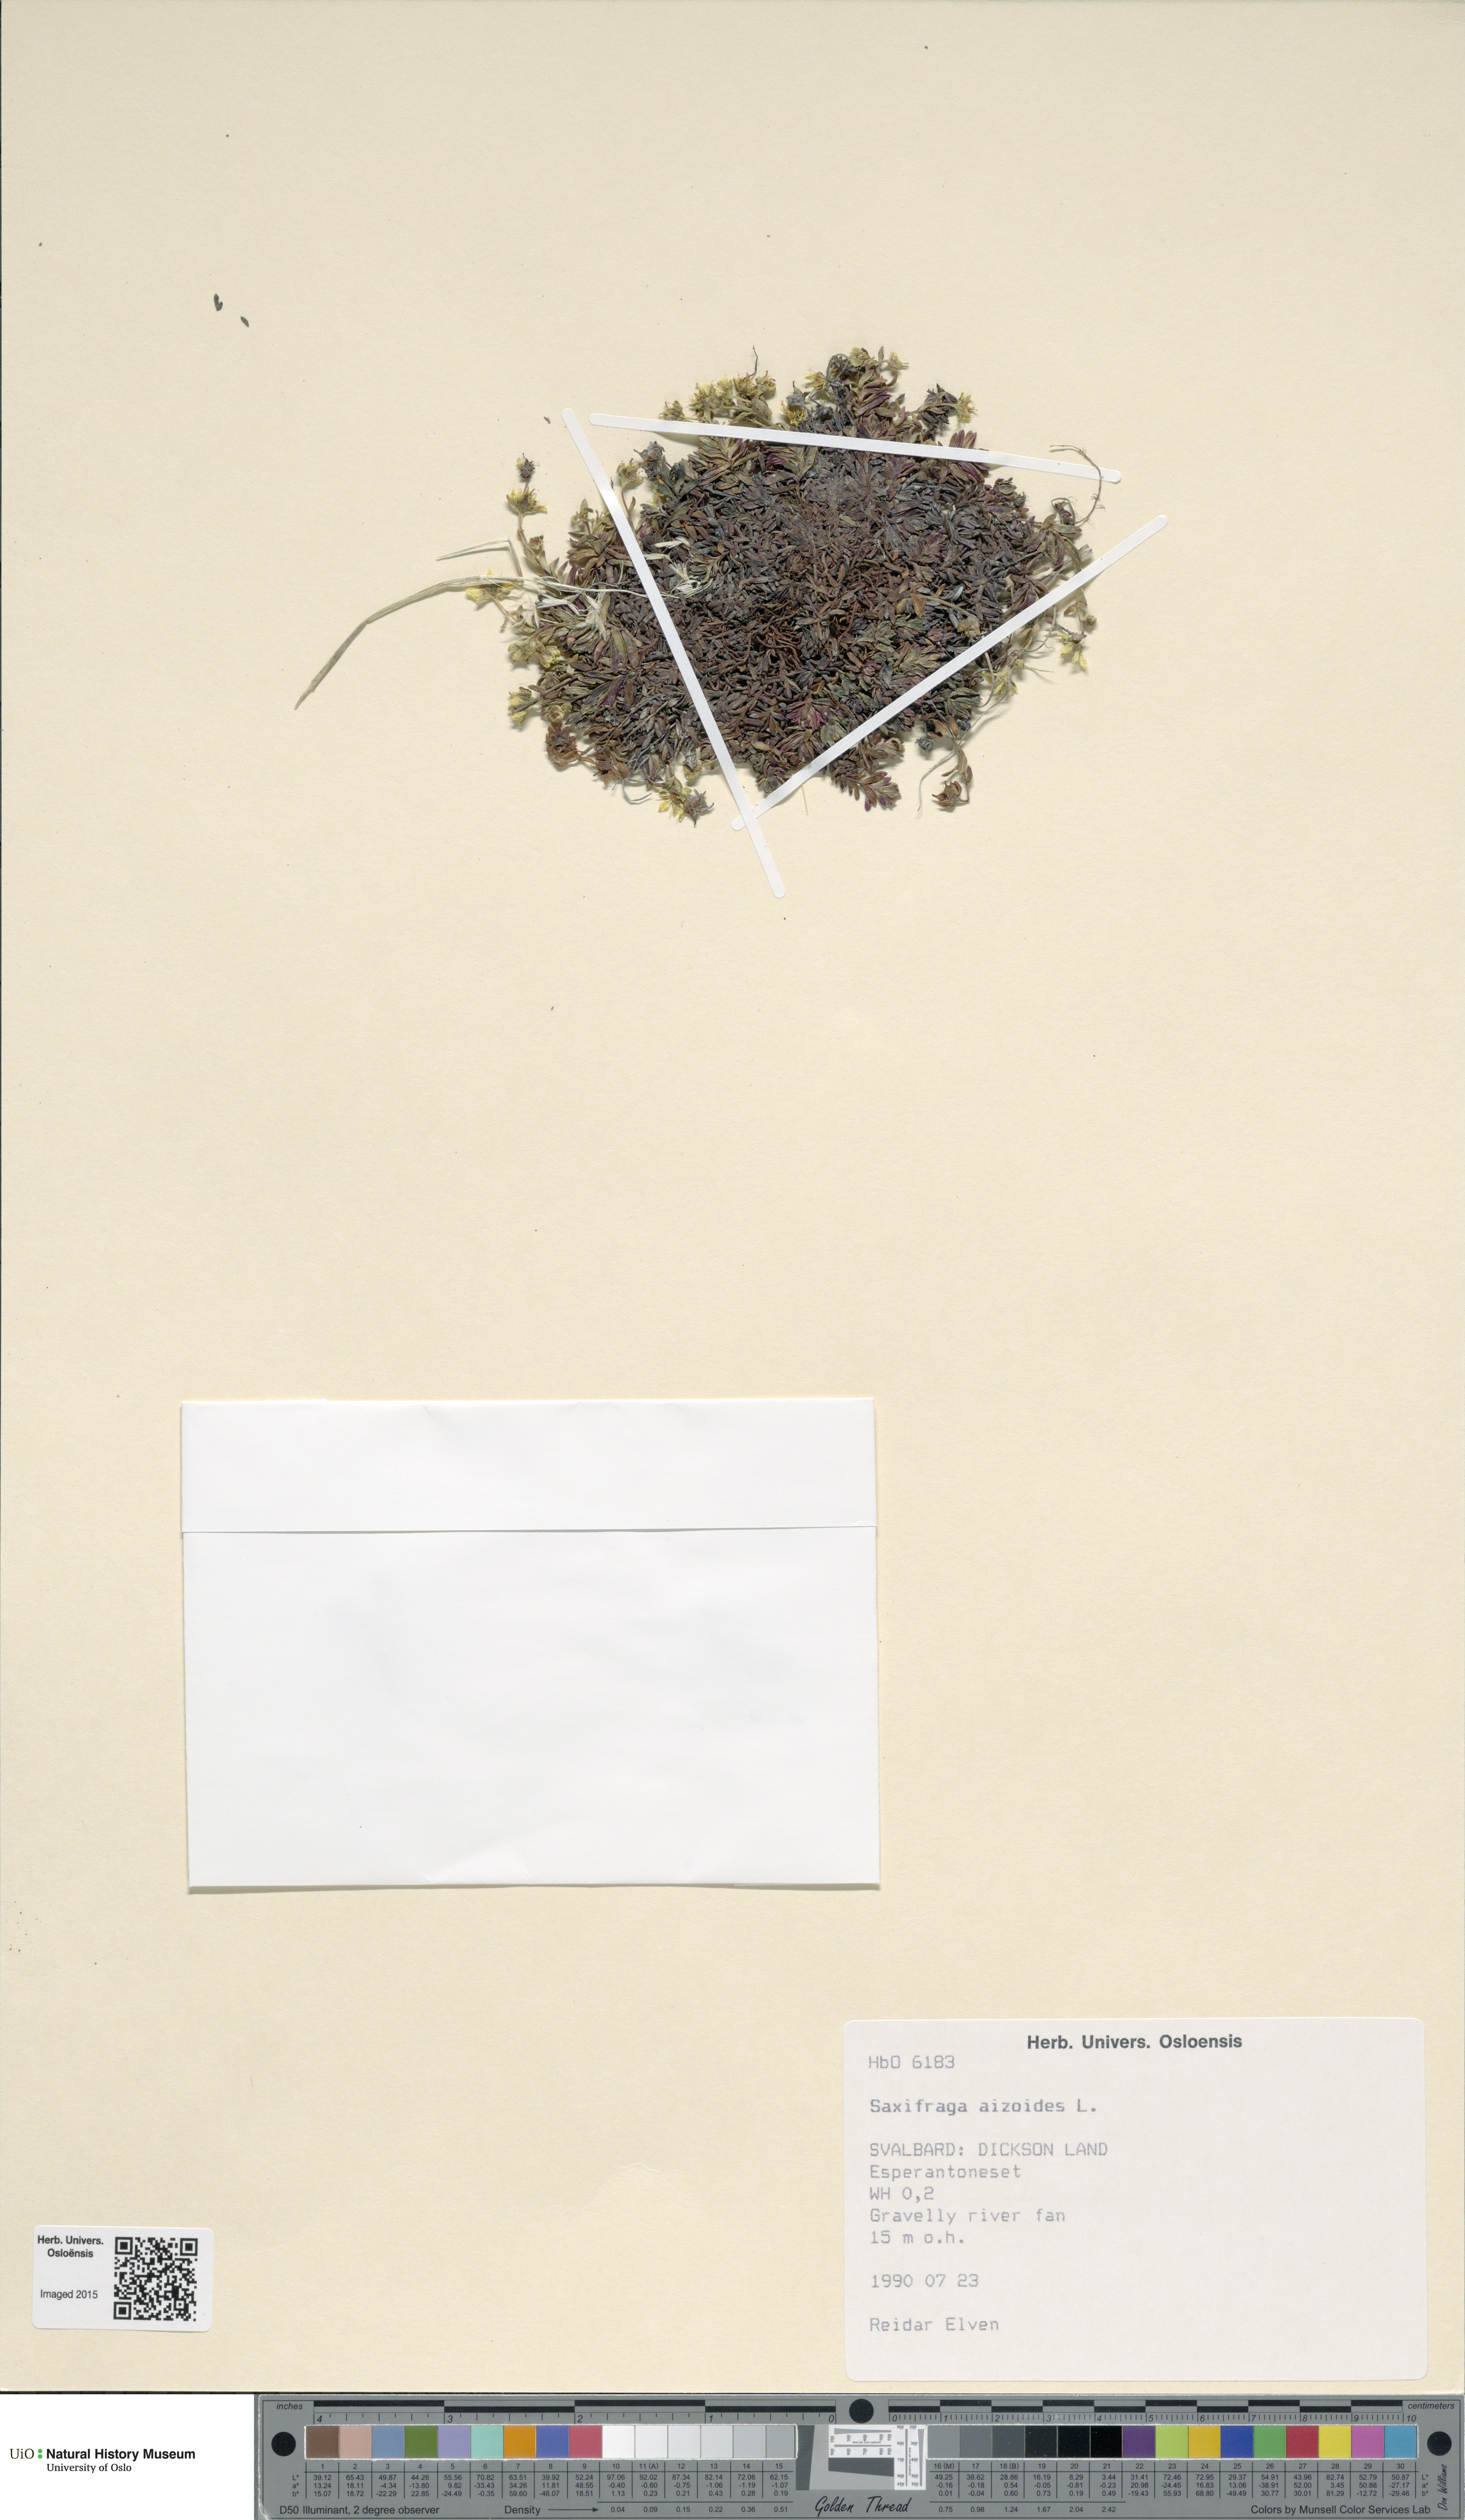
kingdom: Plantae
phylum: Tracheophyta
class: Magnoliopsida
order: Saxifragales
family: Saxifragaceae
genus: Saxifraga
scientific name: Saxifraga aizoides
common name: Yellow mountain saxifrage
